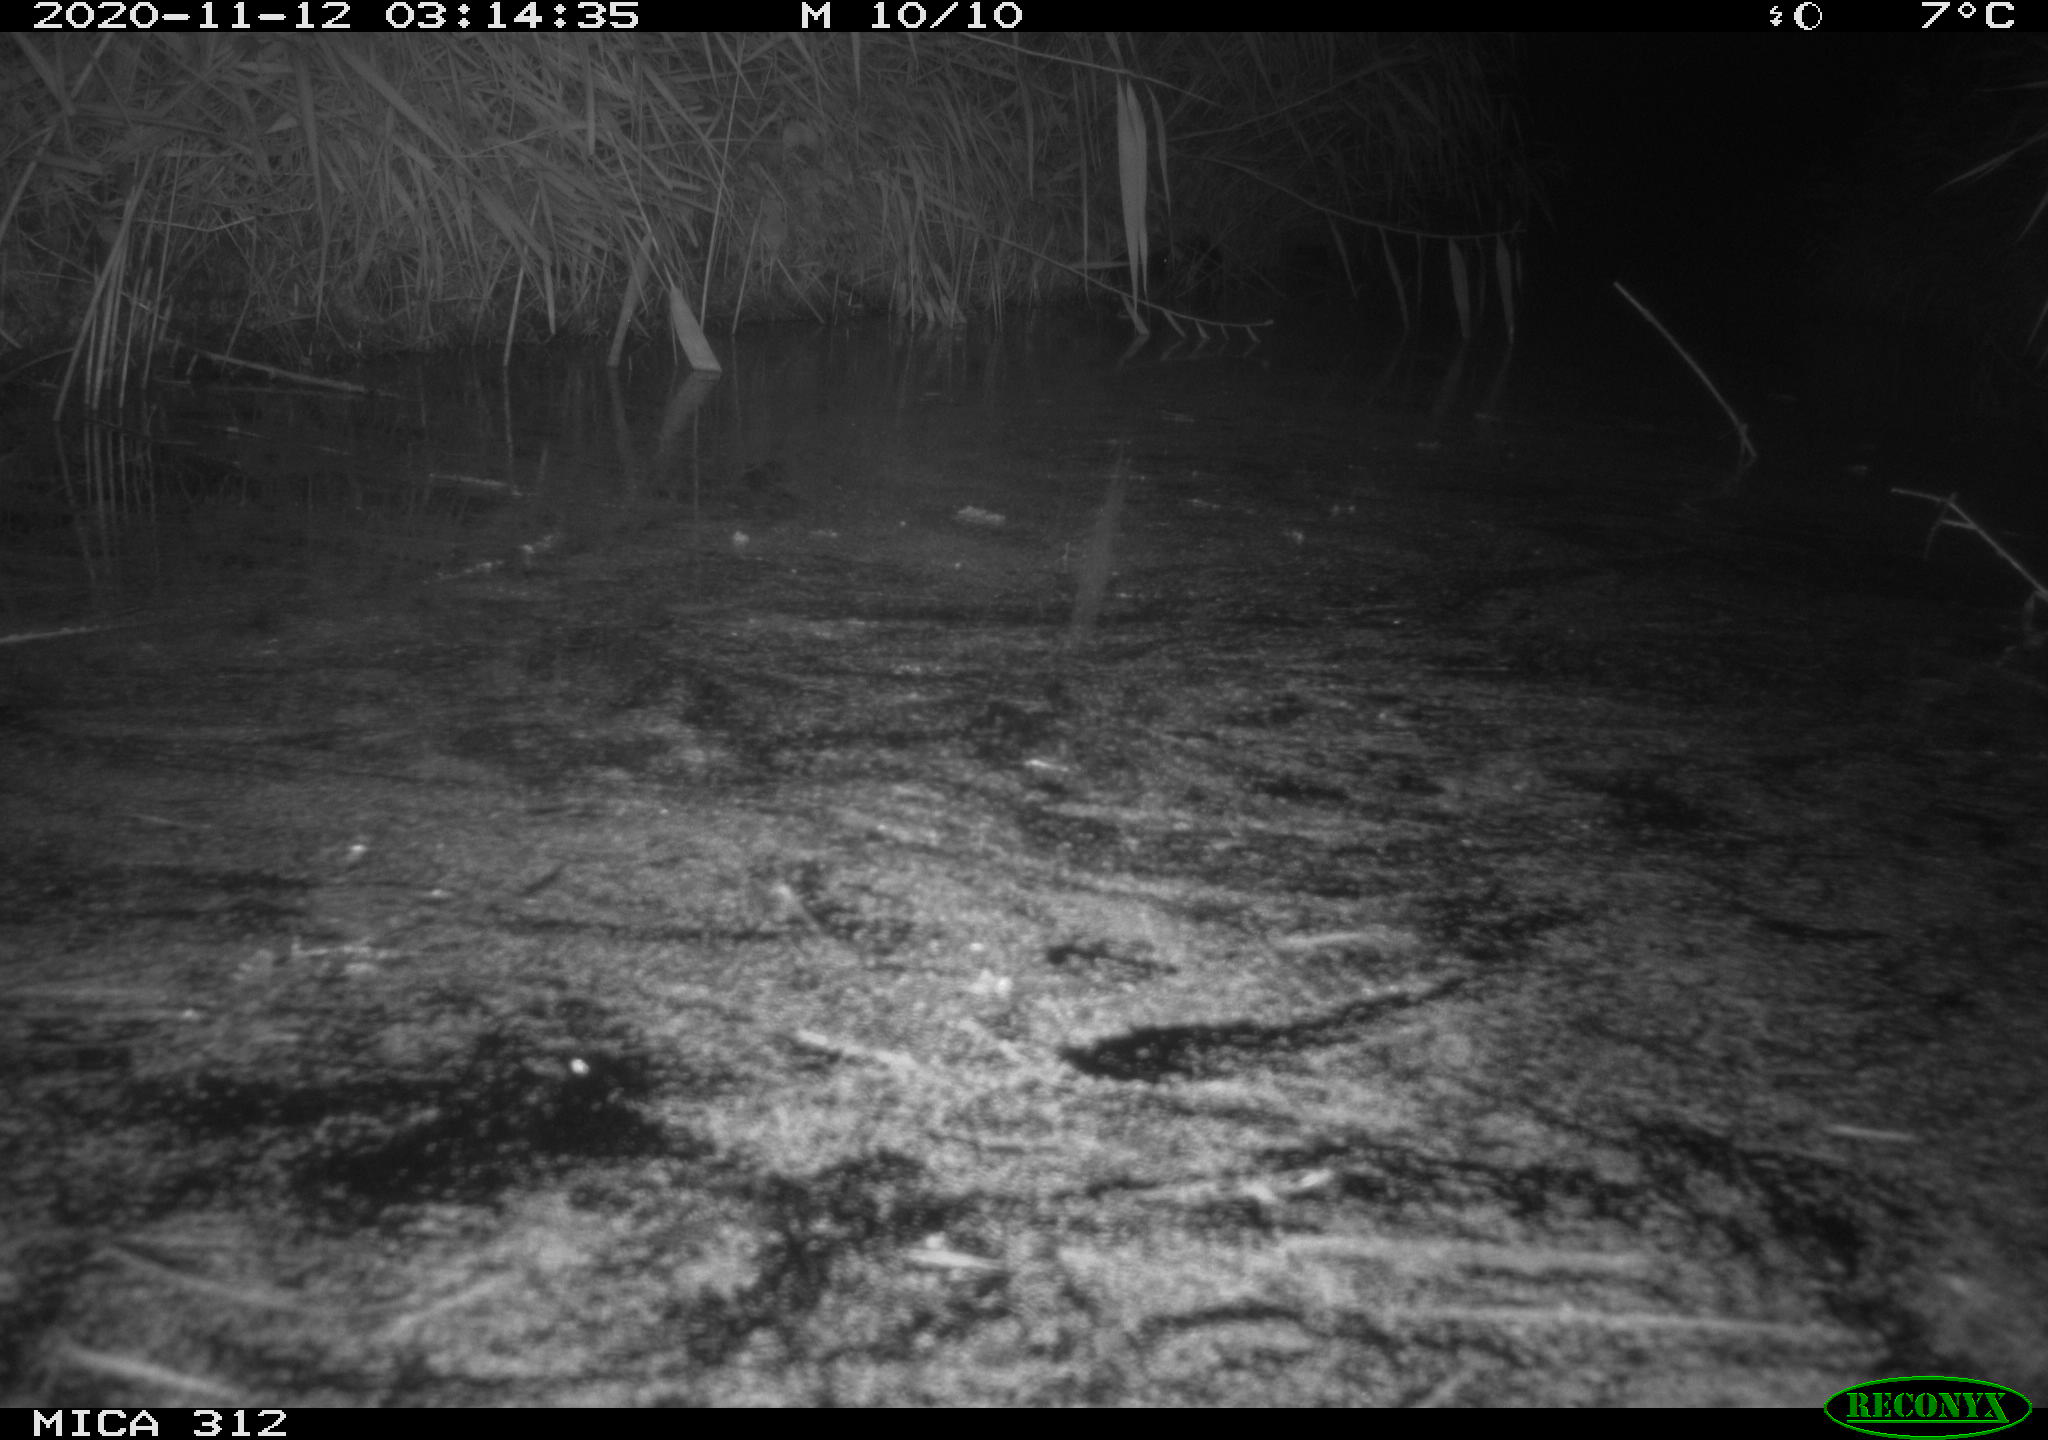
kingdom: Animalia
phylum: Chordata
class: Mammalia
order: Rodentia
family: Muridae
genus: Rattus
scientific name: Rattus norvegicus
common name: Brown rat
